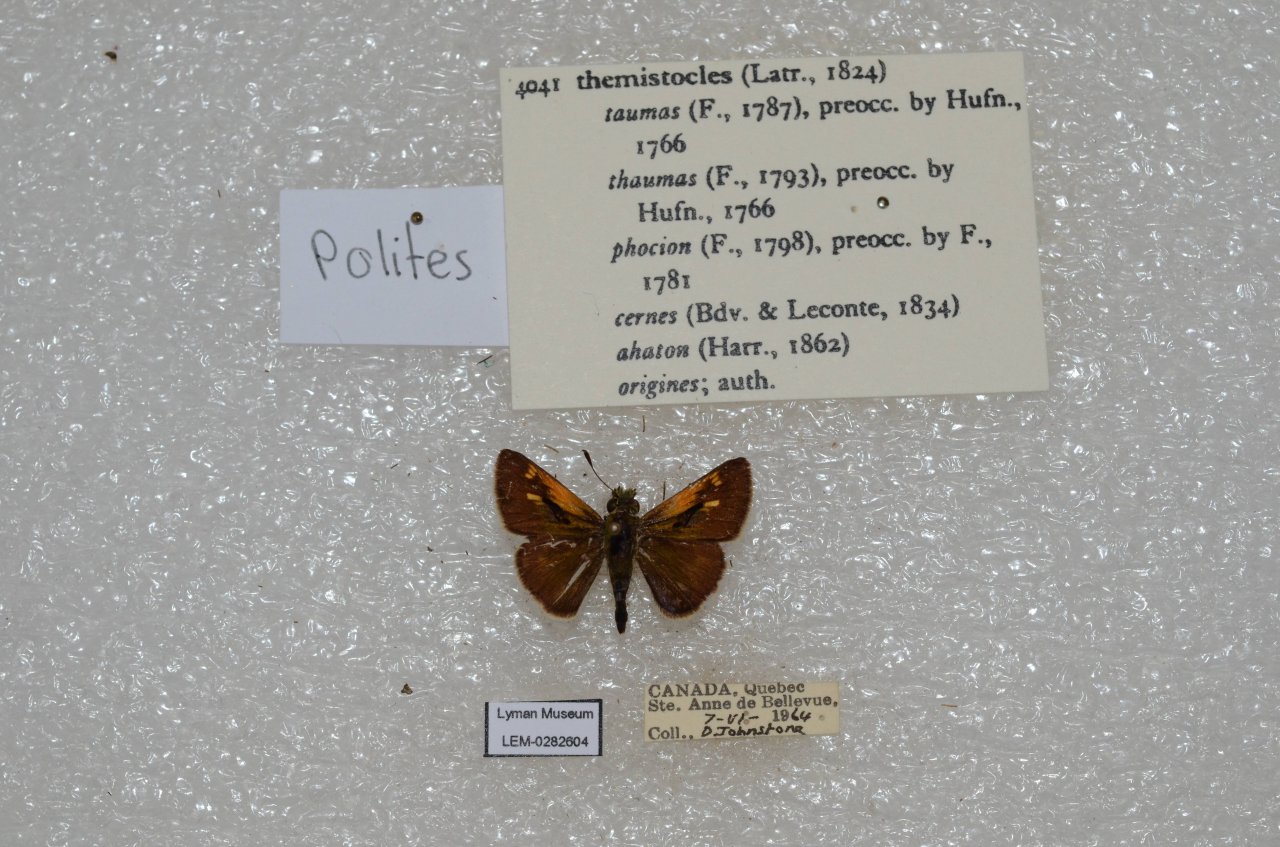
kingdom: Animalia
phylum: Arthropoda
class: Insecta
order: Lepidoptera
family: Hesperiidae
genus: Polites
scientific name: Polites themistocles
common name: Tawny-edged Skipper
